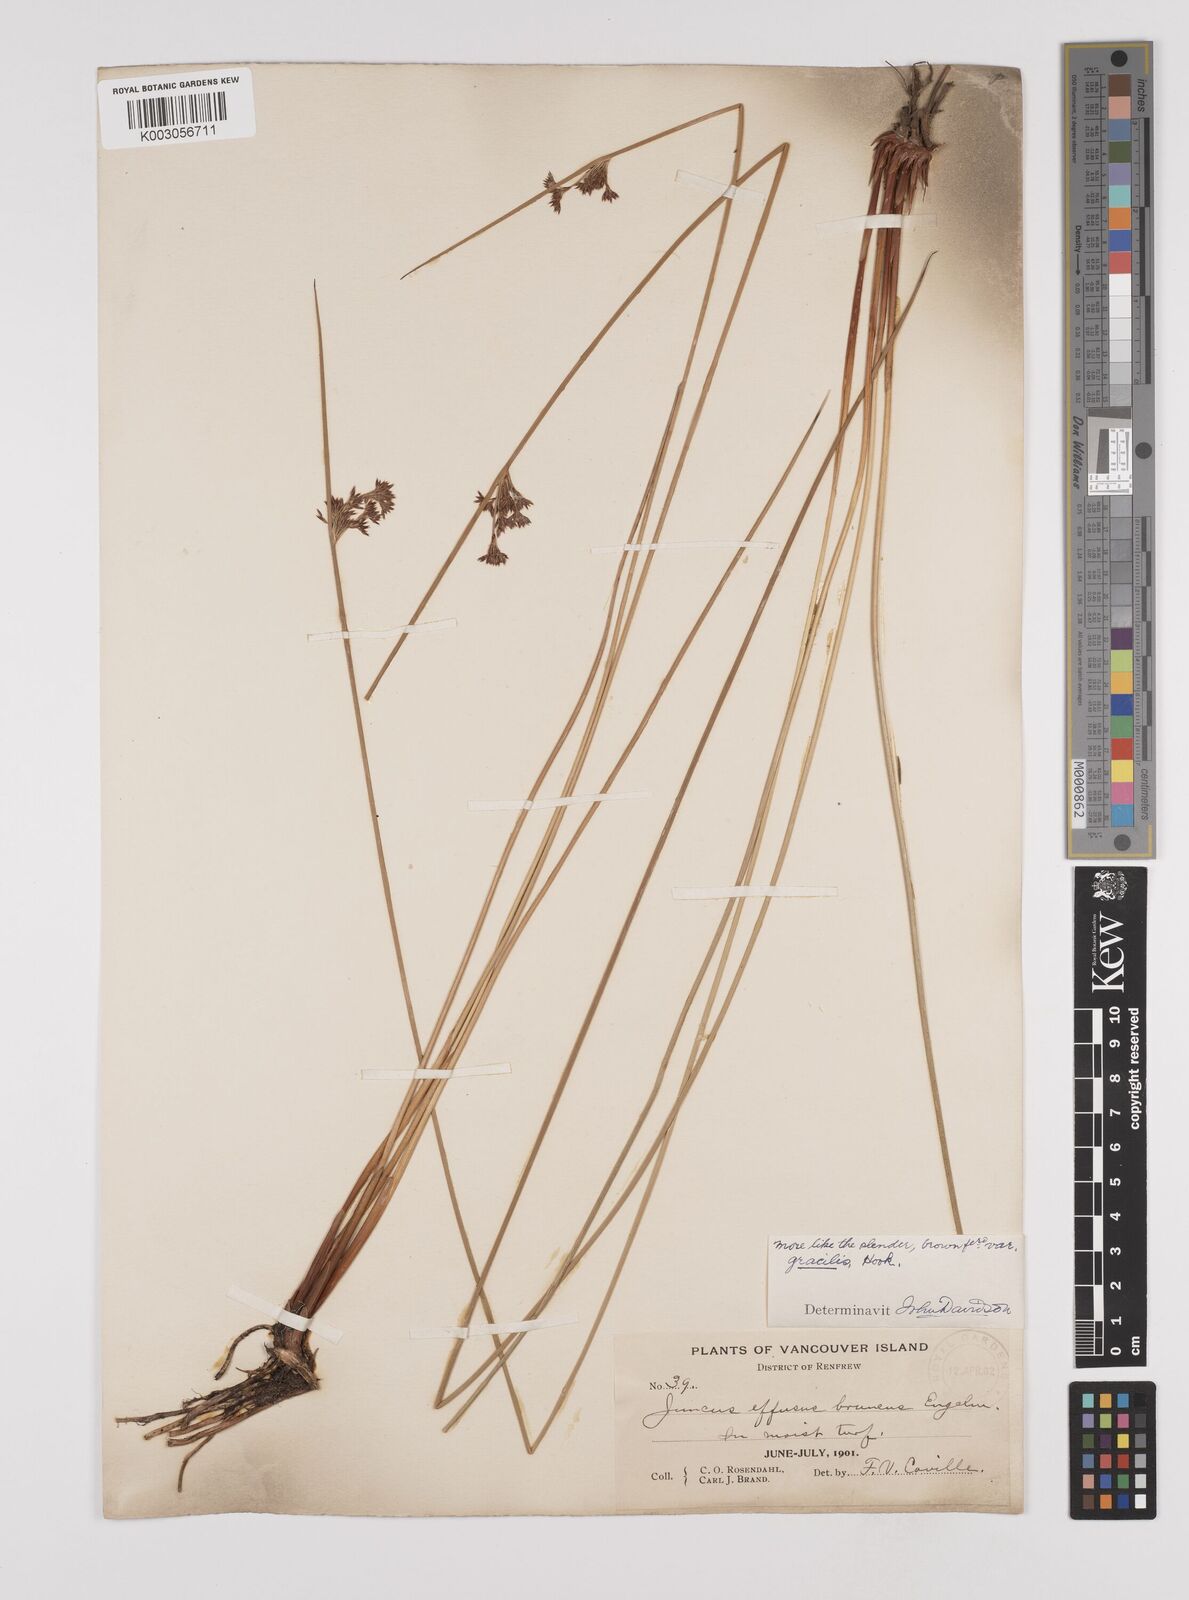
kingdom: Plantae
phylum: Tracheophyta
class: Liliopsida
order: Poales
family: Juncaceae
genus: Juncus
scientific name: Juncus laccatus
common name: Shiny rush
